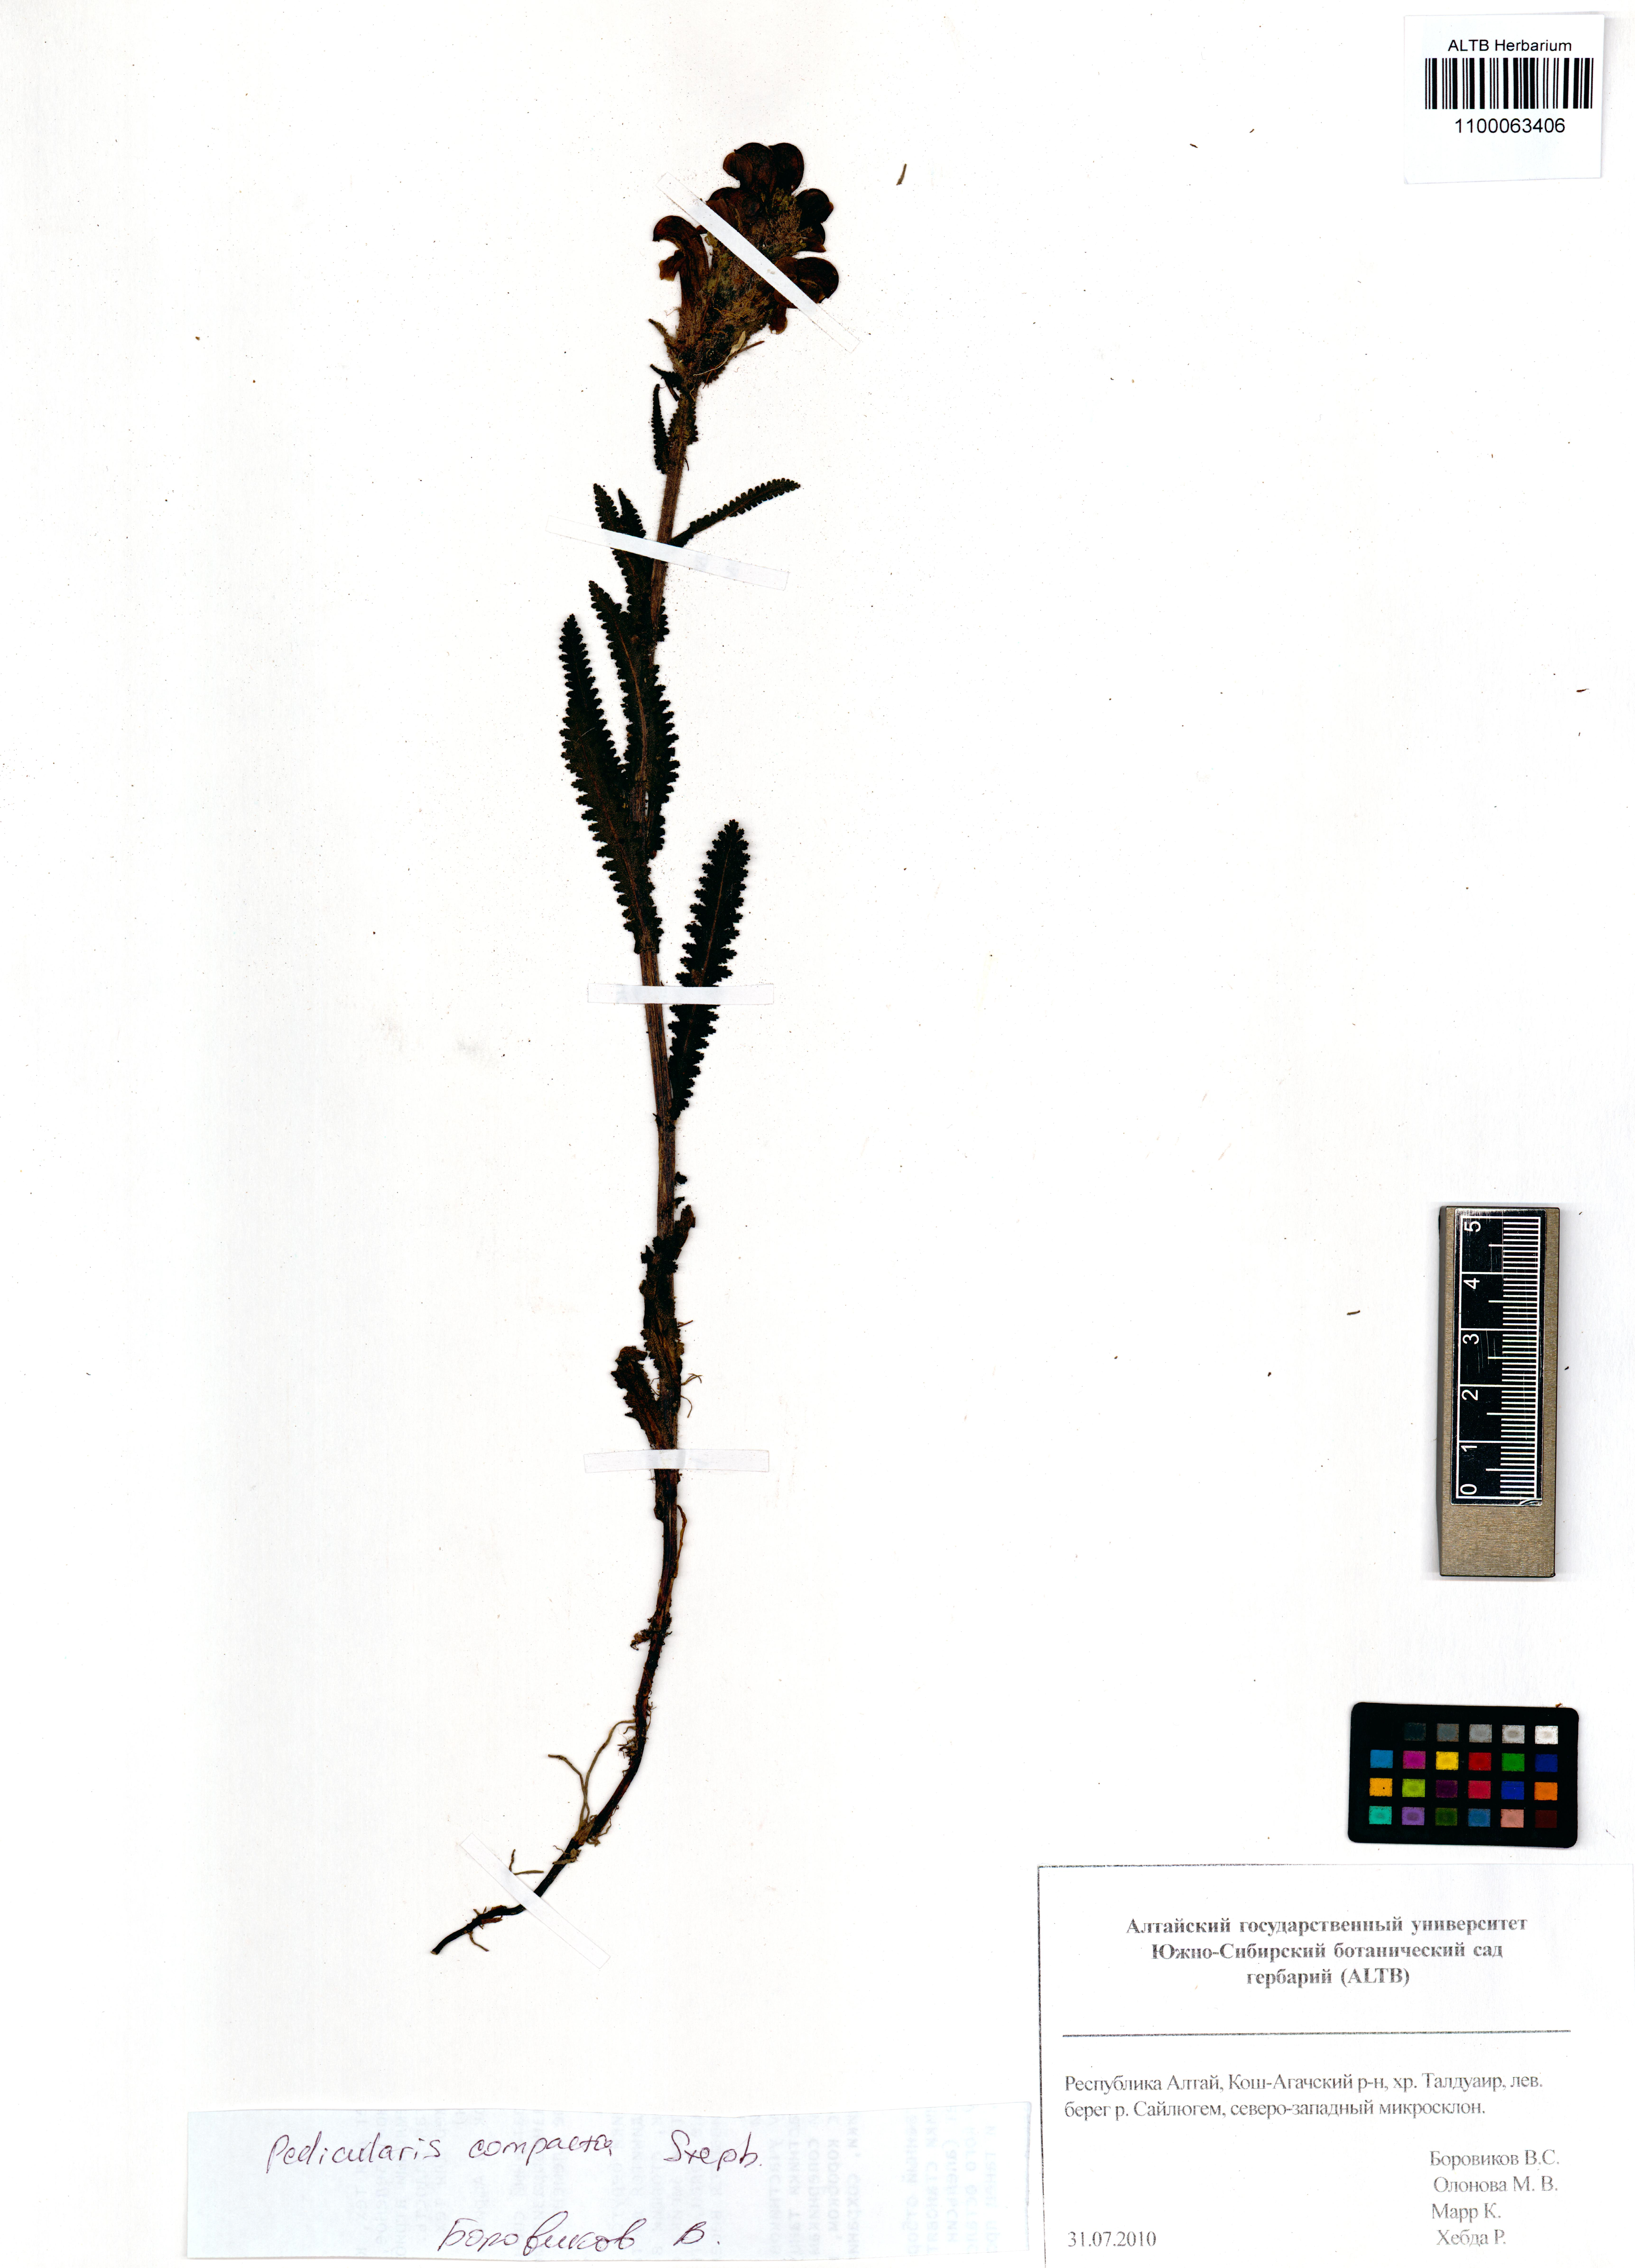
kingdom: Plantae
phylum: Tracheophyta
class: Magnoliopsida
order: Lamiales
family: Orobanchaceae
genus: Pedicularis
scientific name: Pedicularis compacta
